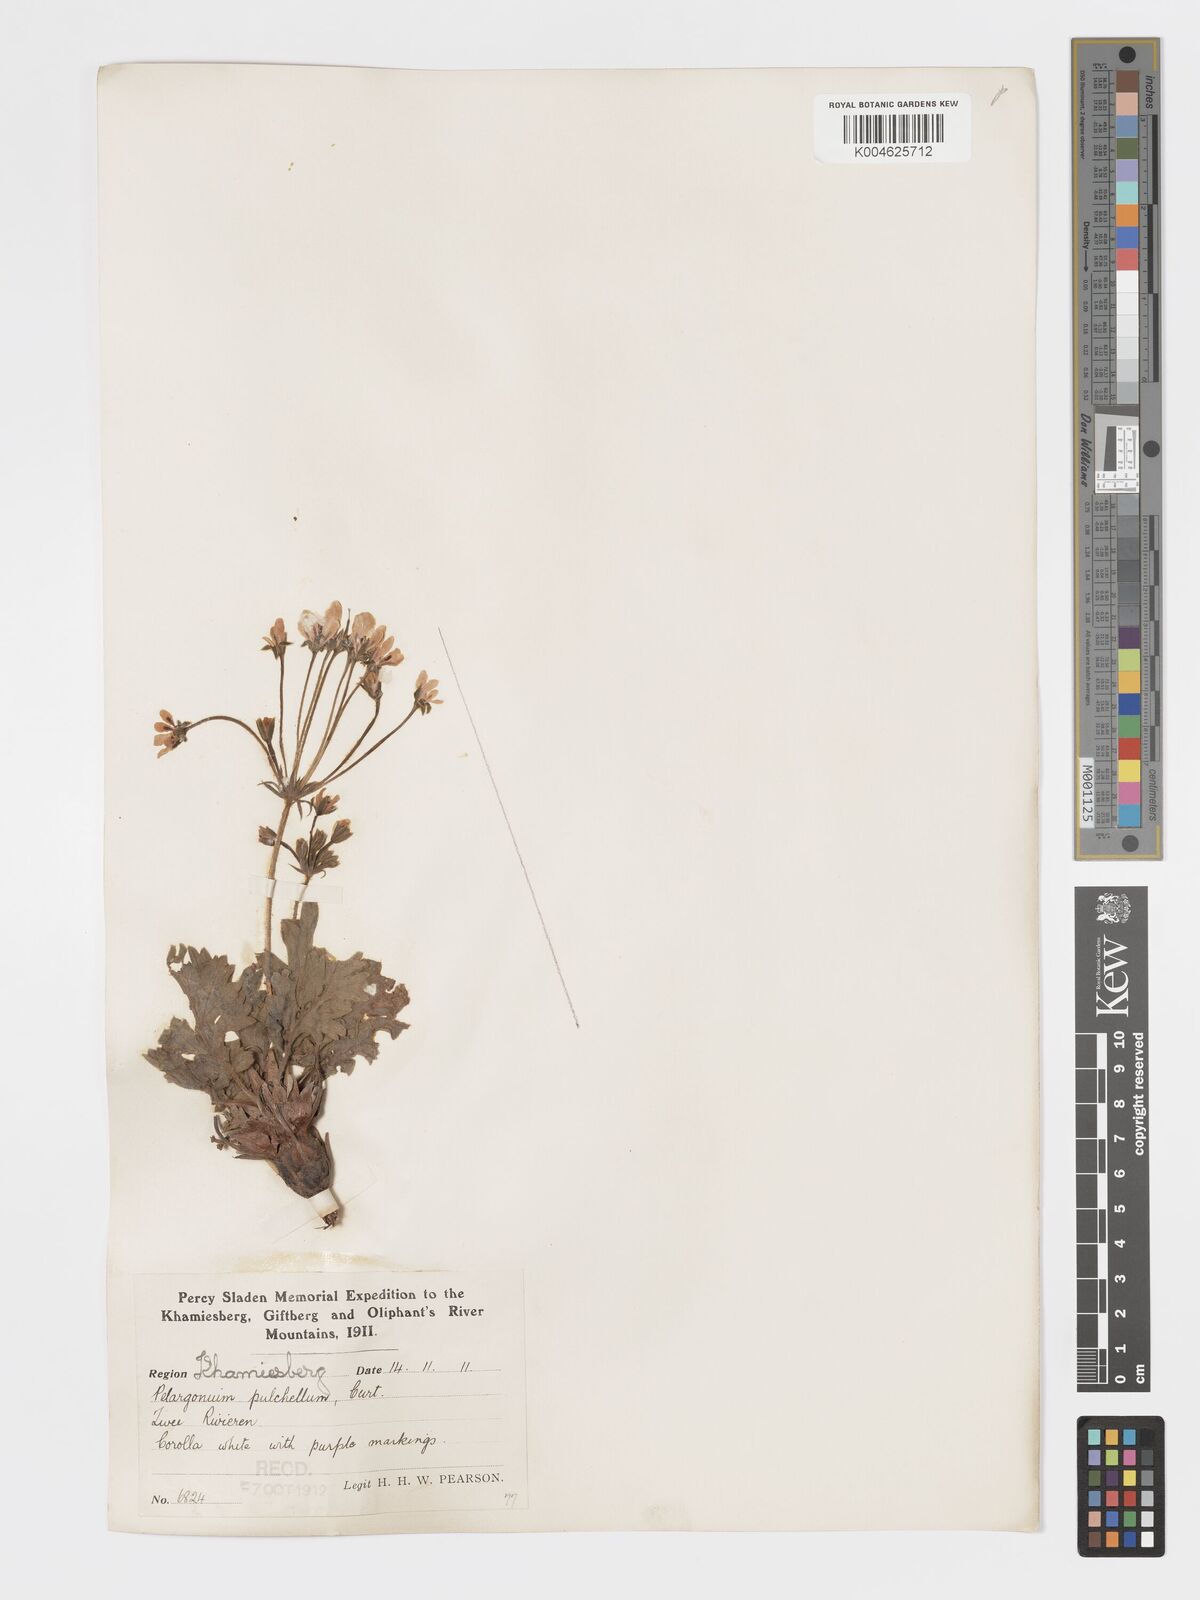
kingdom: Plantae
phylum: Tracheophyta
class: Magnoliopsida
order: Geraniales
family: Geraniaceae
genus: Pelargonium
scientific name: Pelargonium
